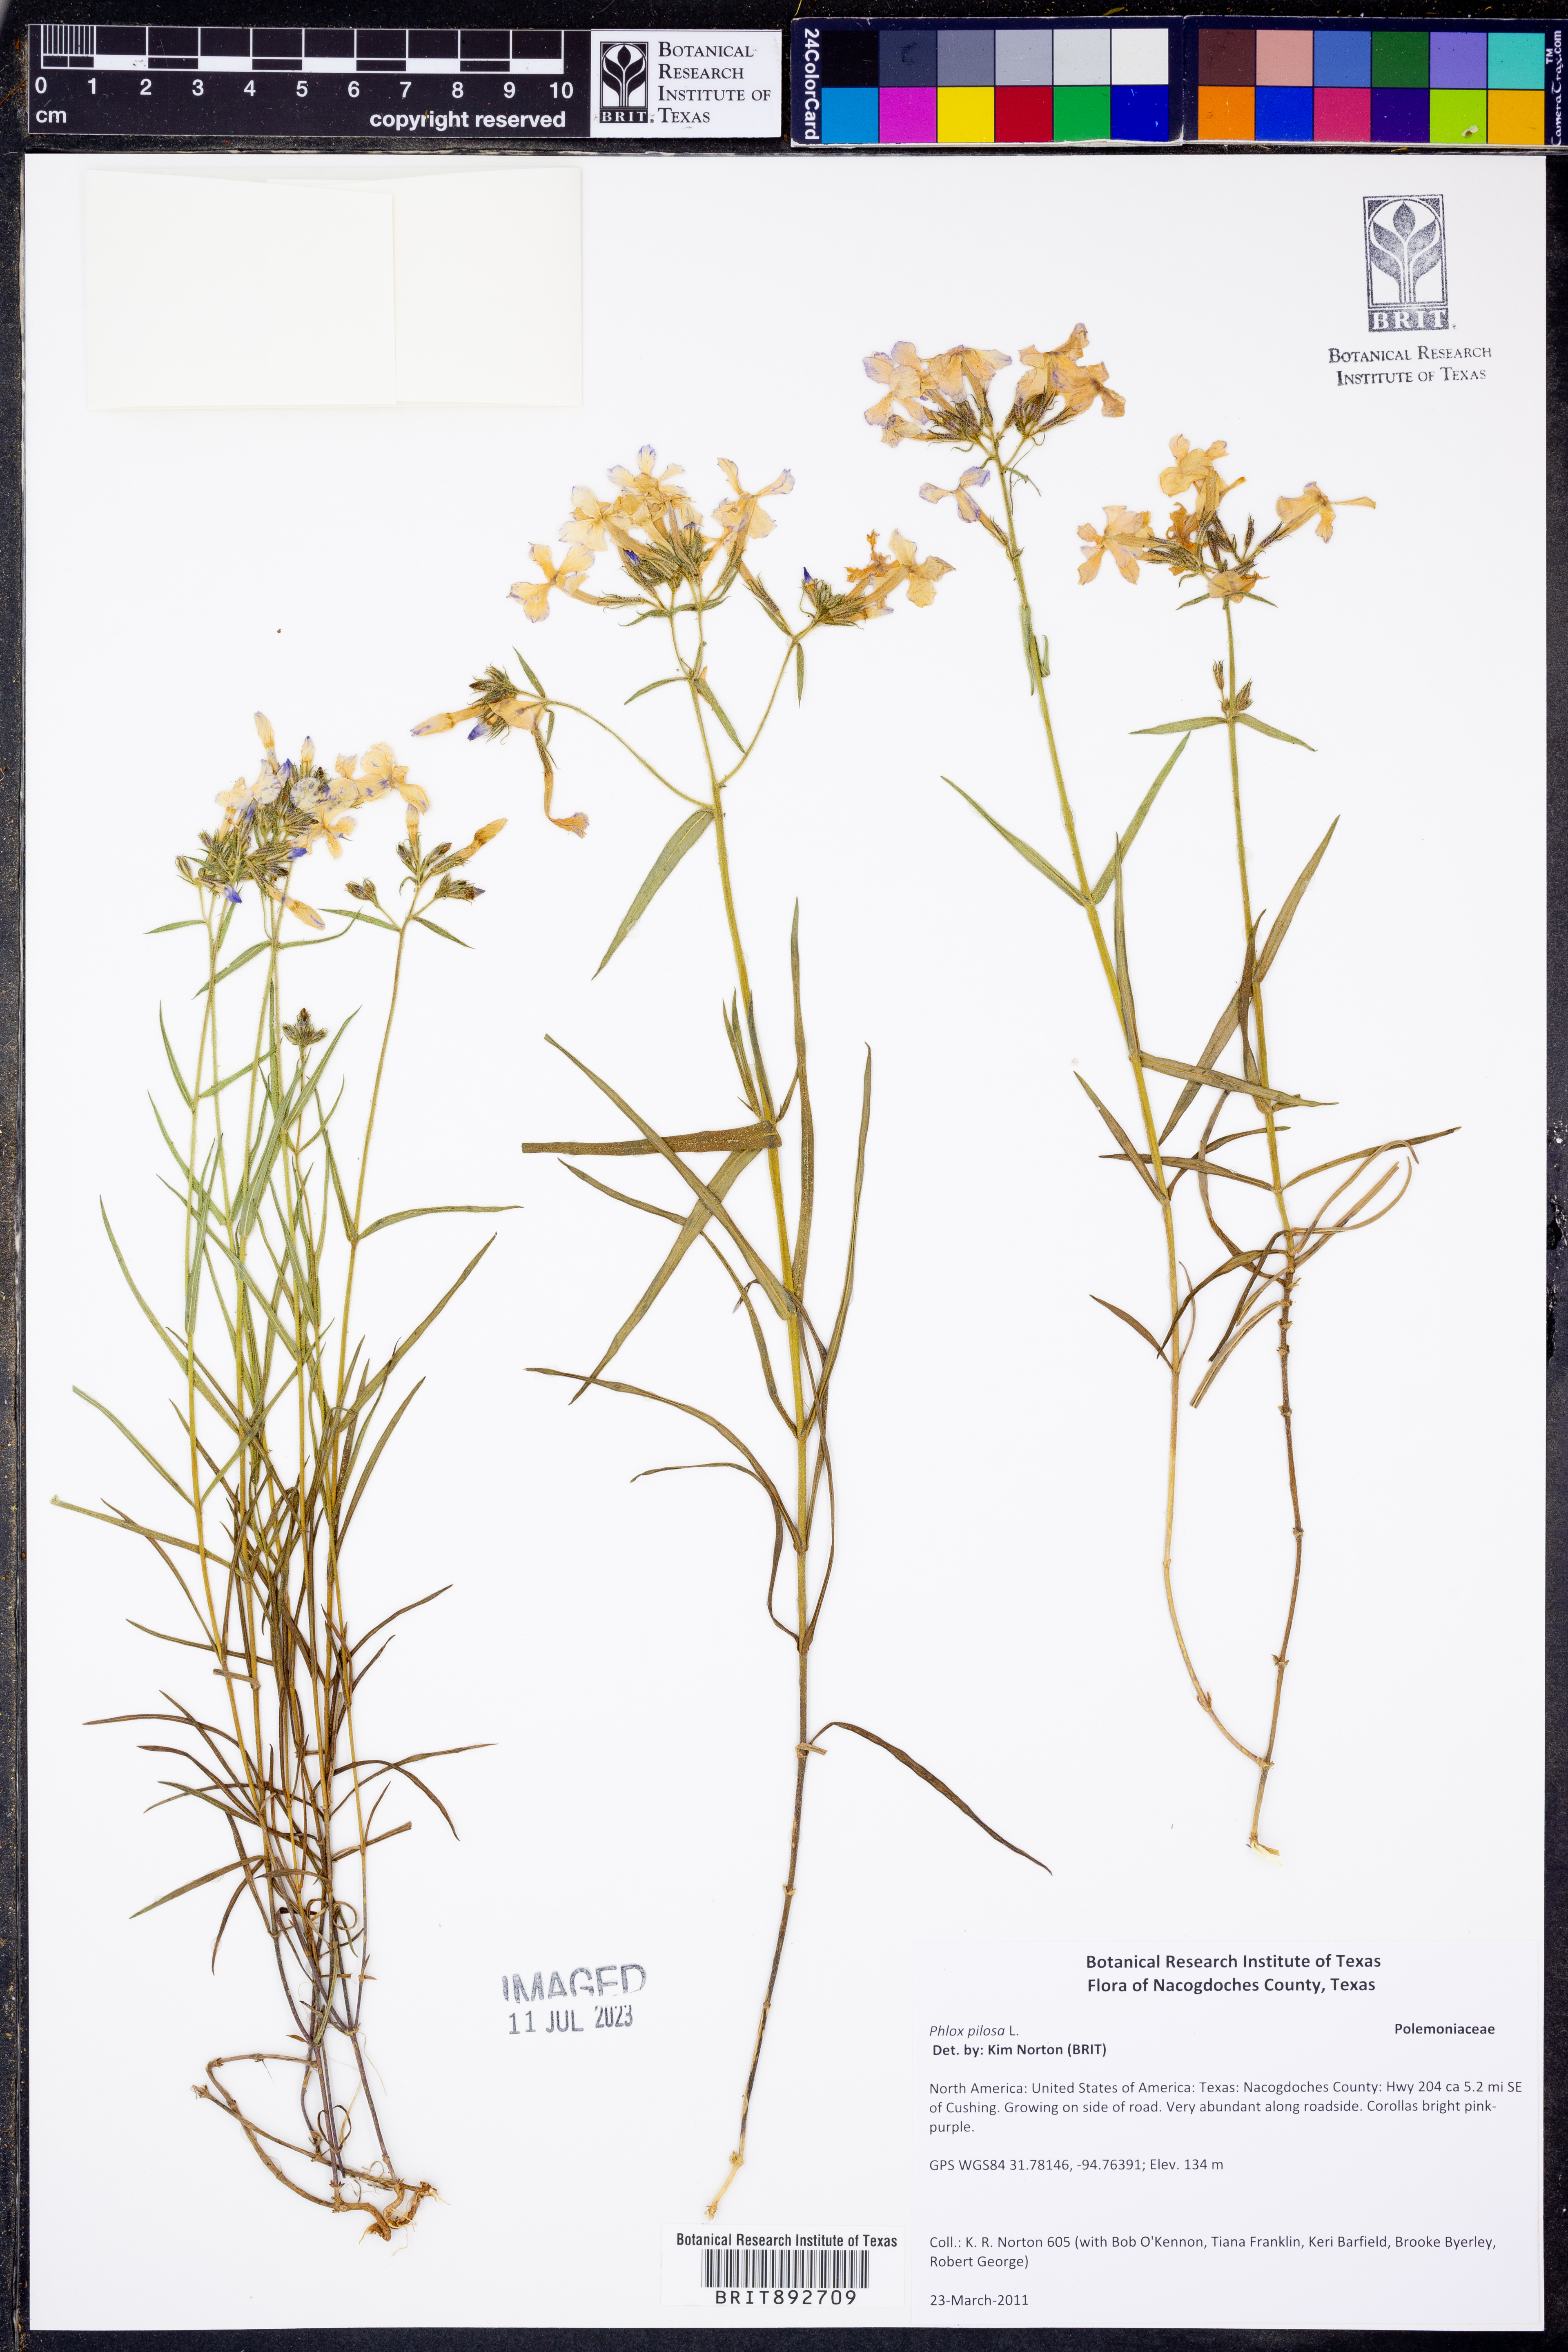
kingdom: Plantae
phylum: Tracheophyta
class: Magnoliopsida
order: Ericales
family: Polemoniaceae
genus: Phlox
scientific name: Phlox pilosa
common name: Prairie phlox
